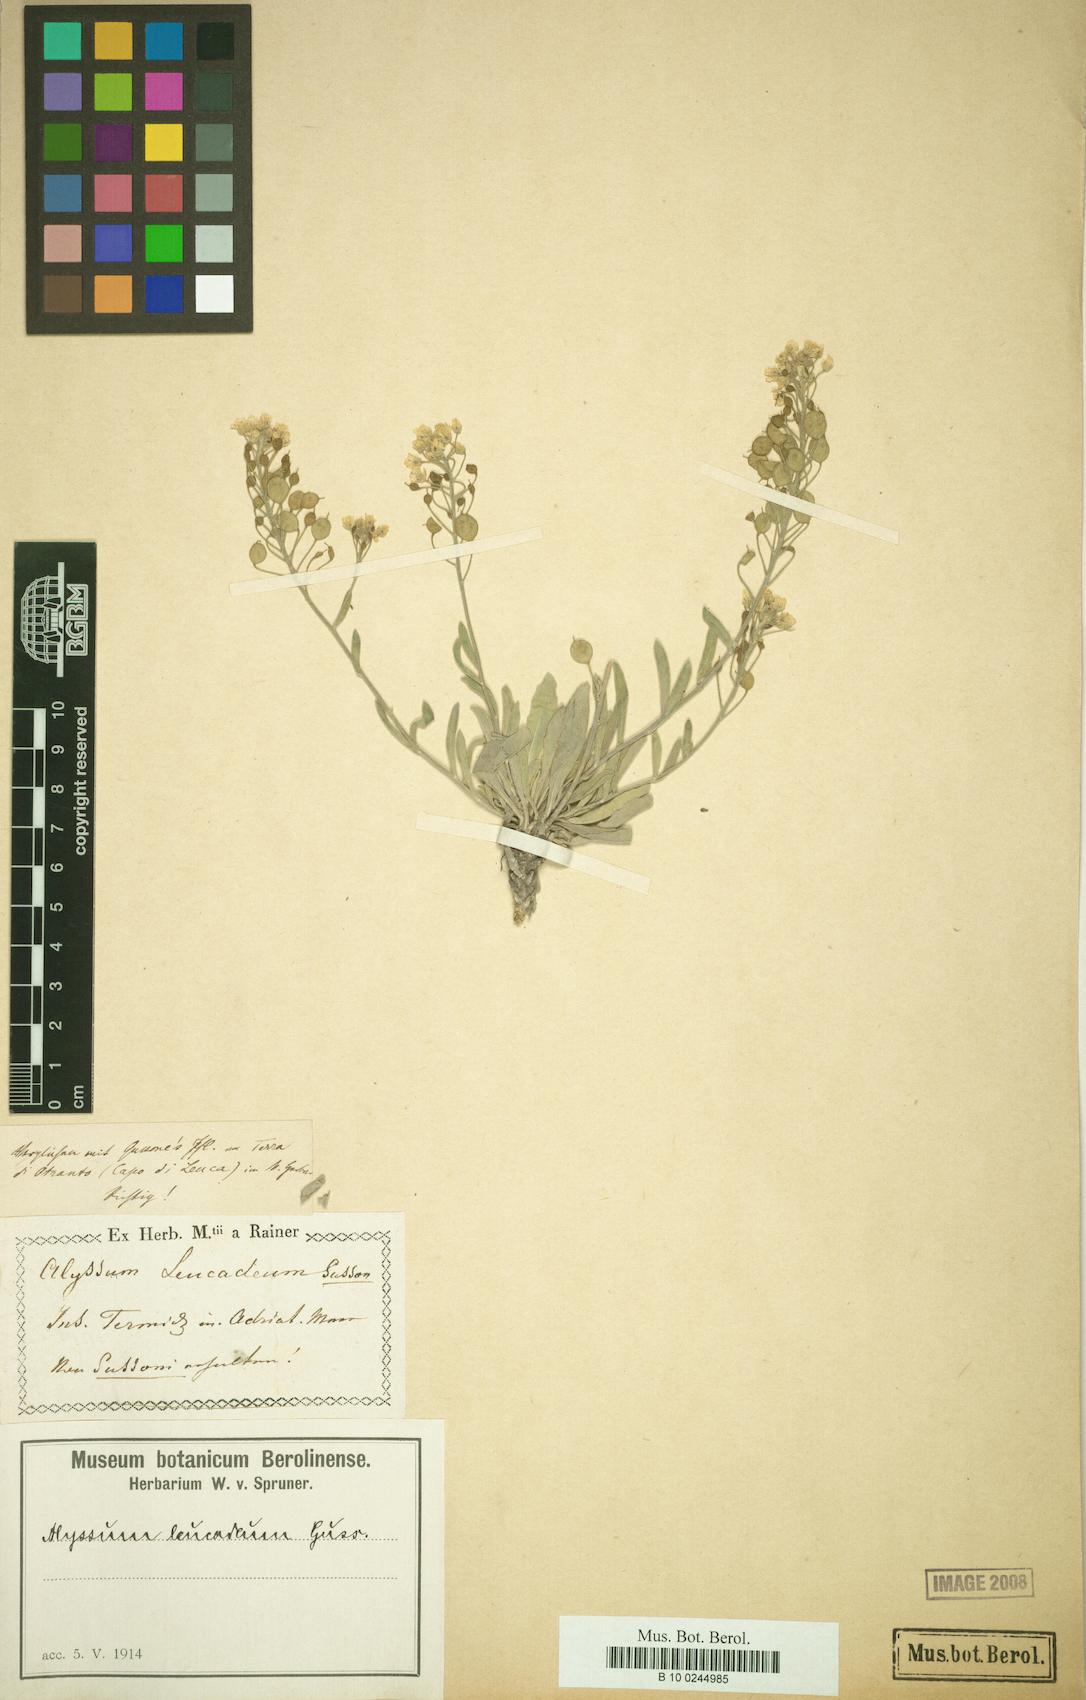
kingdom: Plantae
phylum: Tracheophyta
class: Magnoliopsida
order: Brassicales
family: Brassicaceae
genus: Aurinia
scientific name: Aurinia leucadea
